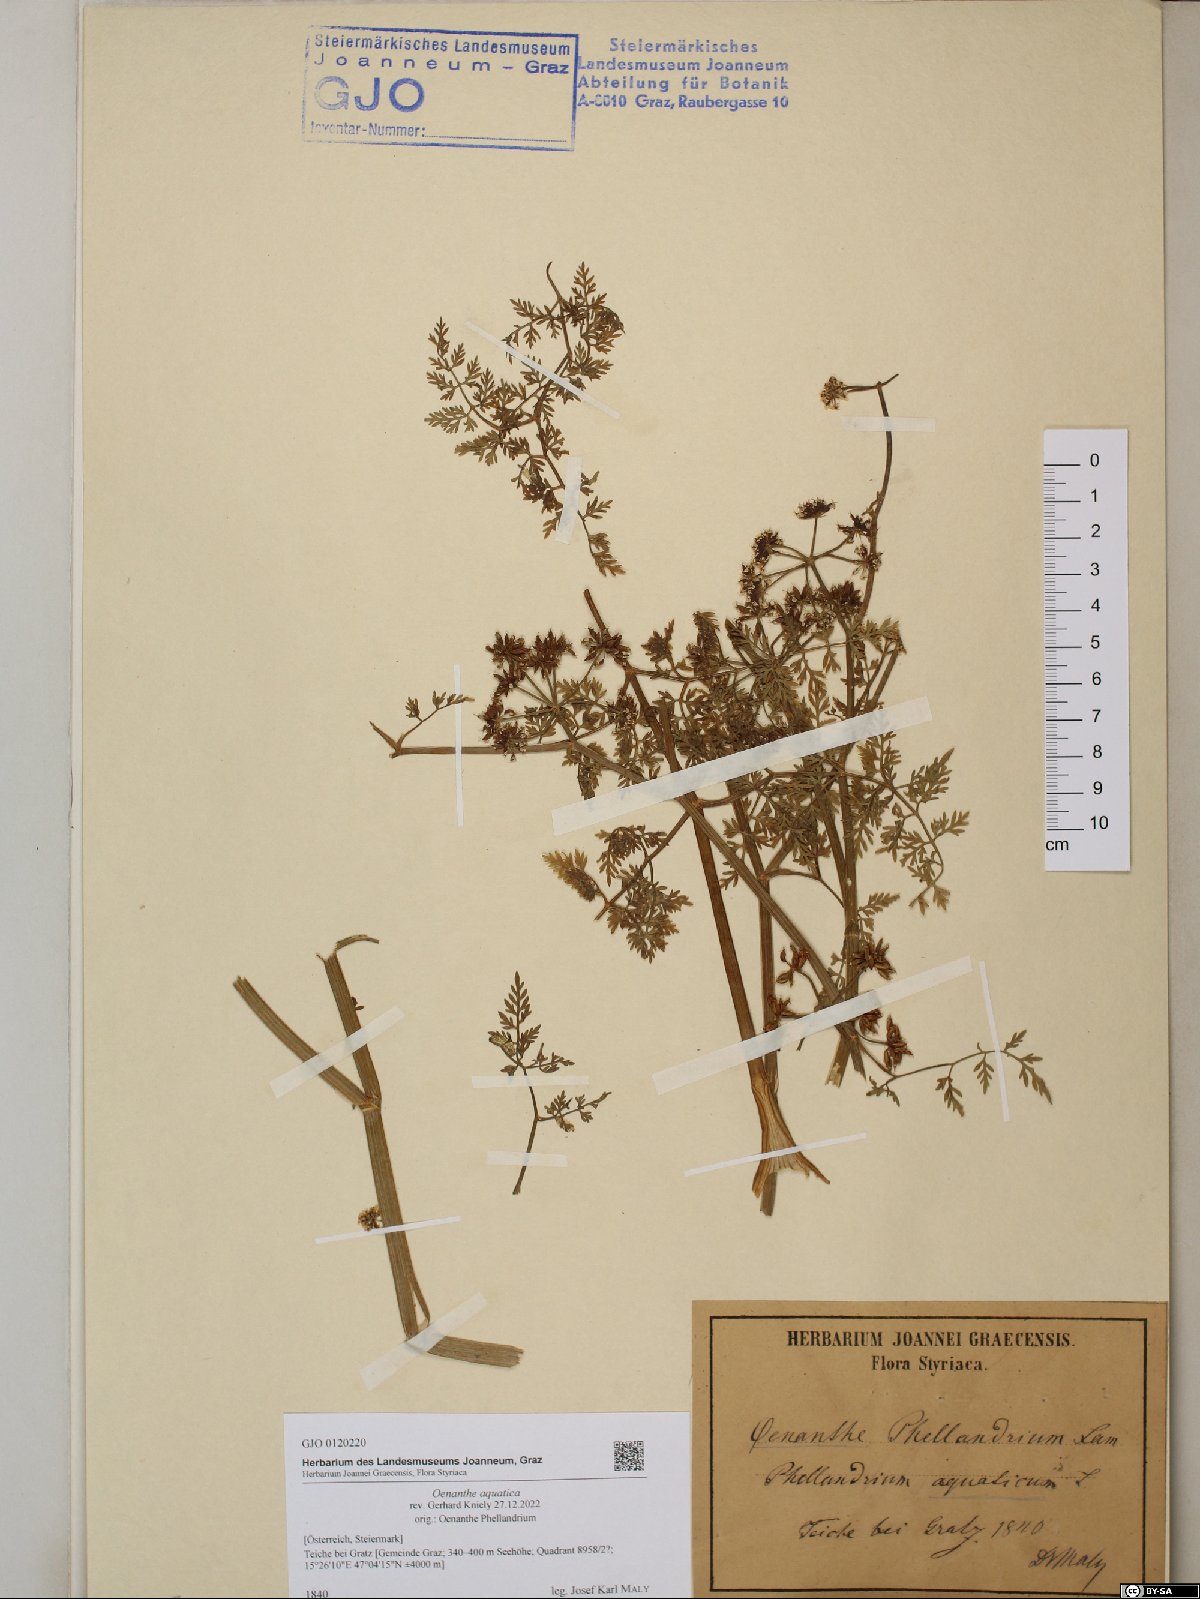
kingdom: Plantae
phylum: Tracheophyta
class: Magnoliopsida
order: Apiales
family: Apiaceae
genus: Oenanthe
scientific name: Oenanthe aquatica
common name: Fine-leaved water-dropwort
